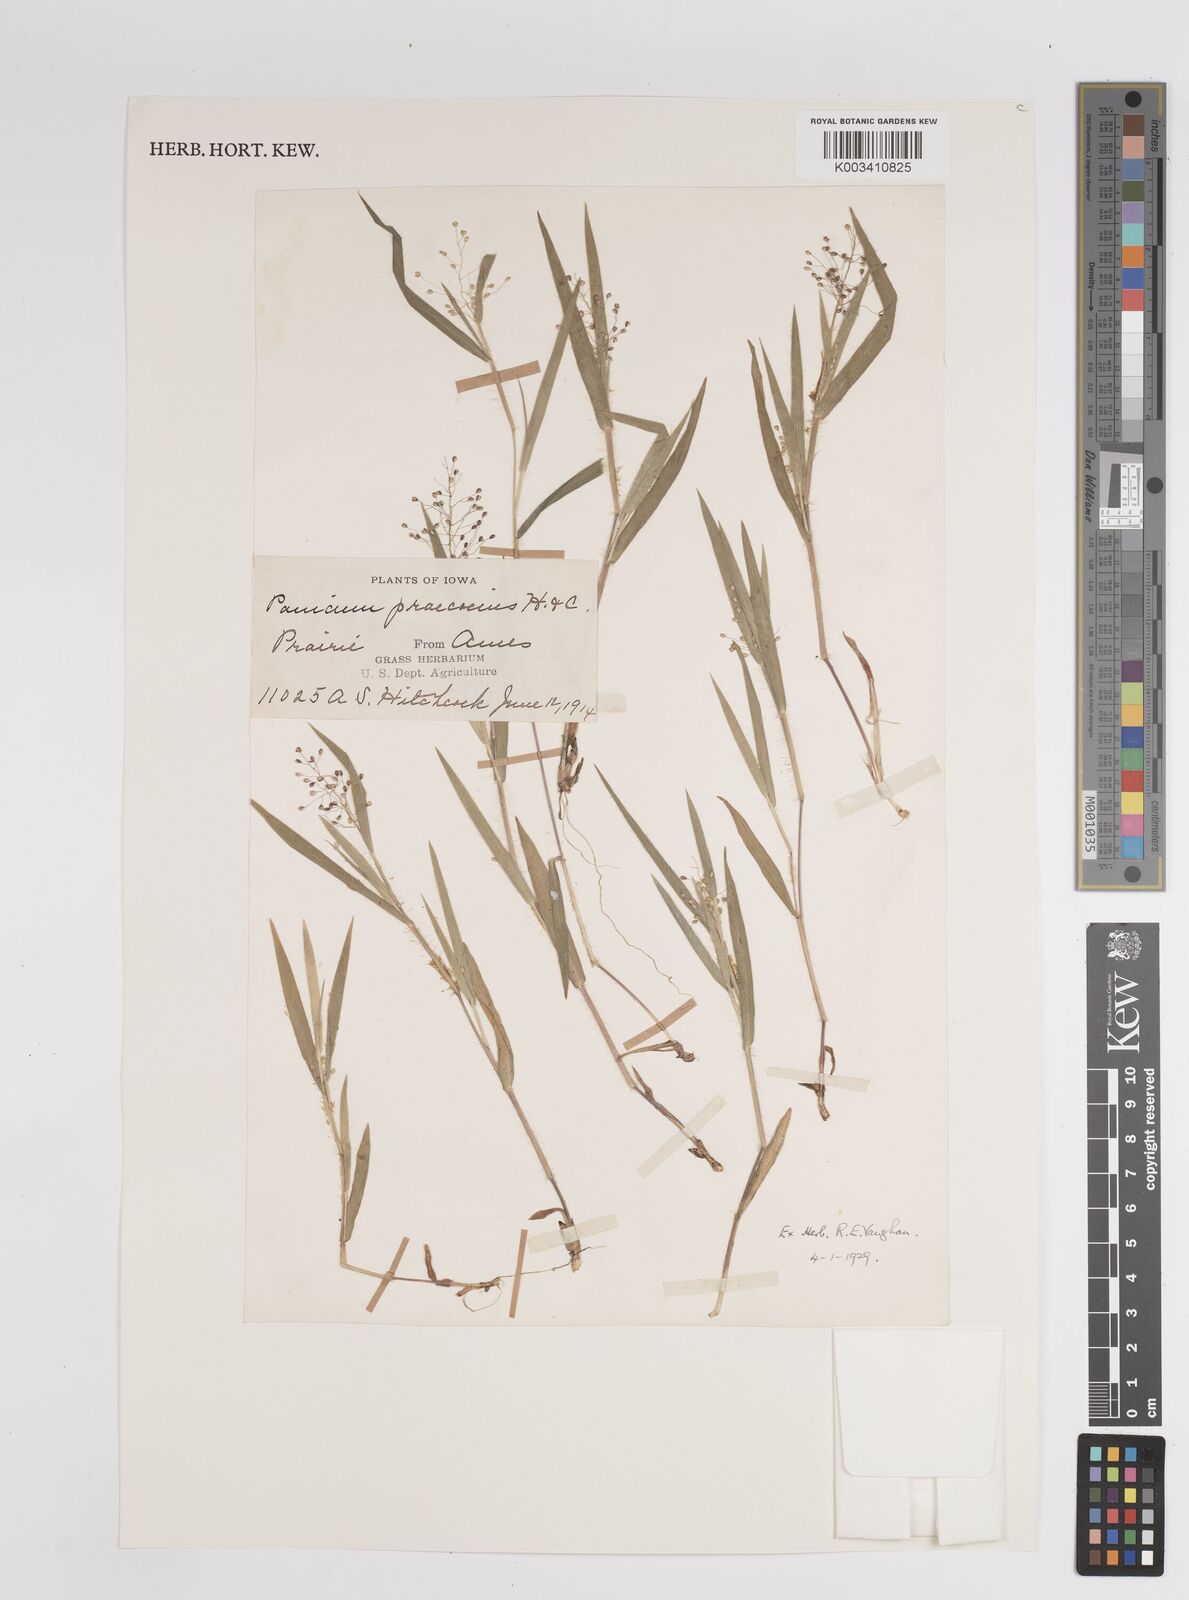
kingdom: Plantae
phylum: Tracheophyta
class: Liliopsida
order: Poales
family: Poaceae
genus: Dichanthelium
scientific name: Dichanthelium implicatum
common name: Slender-stemmed panicgrass
